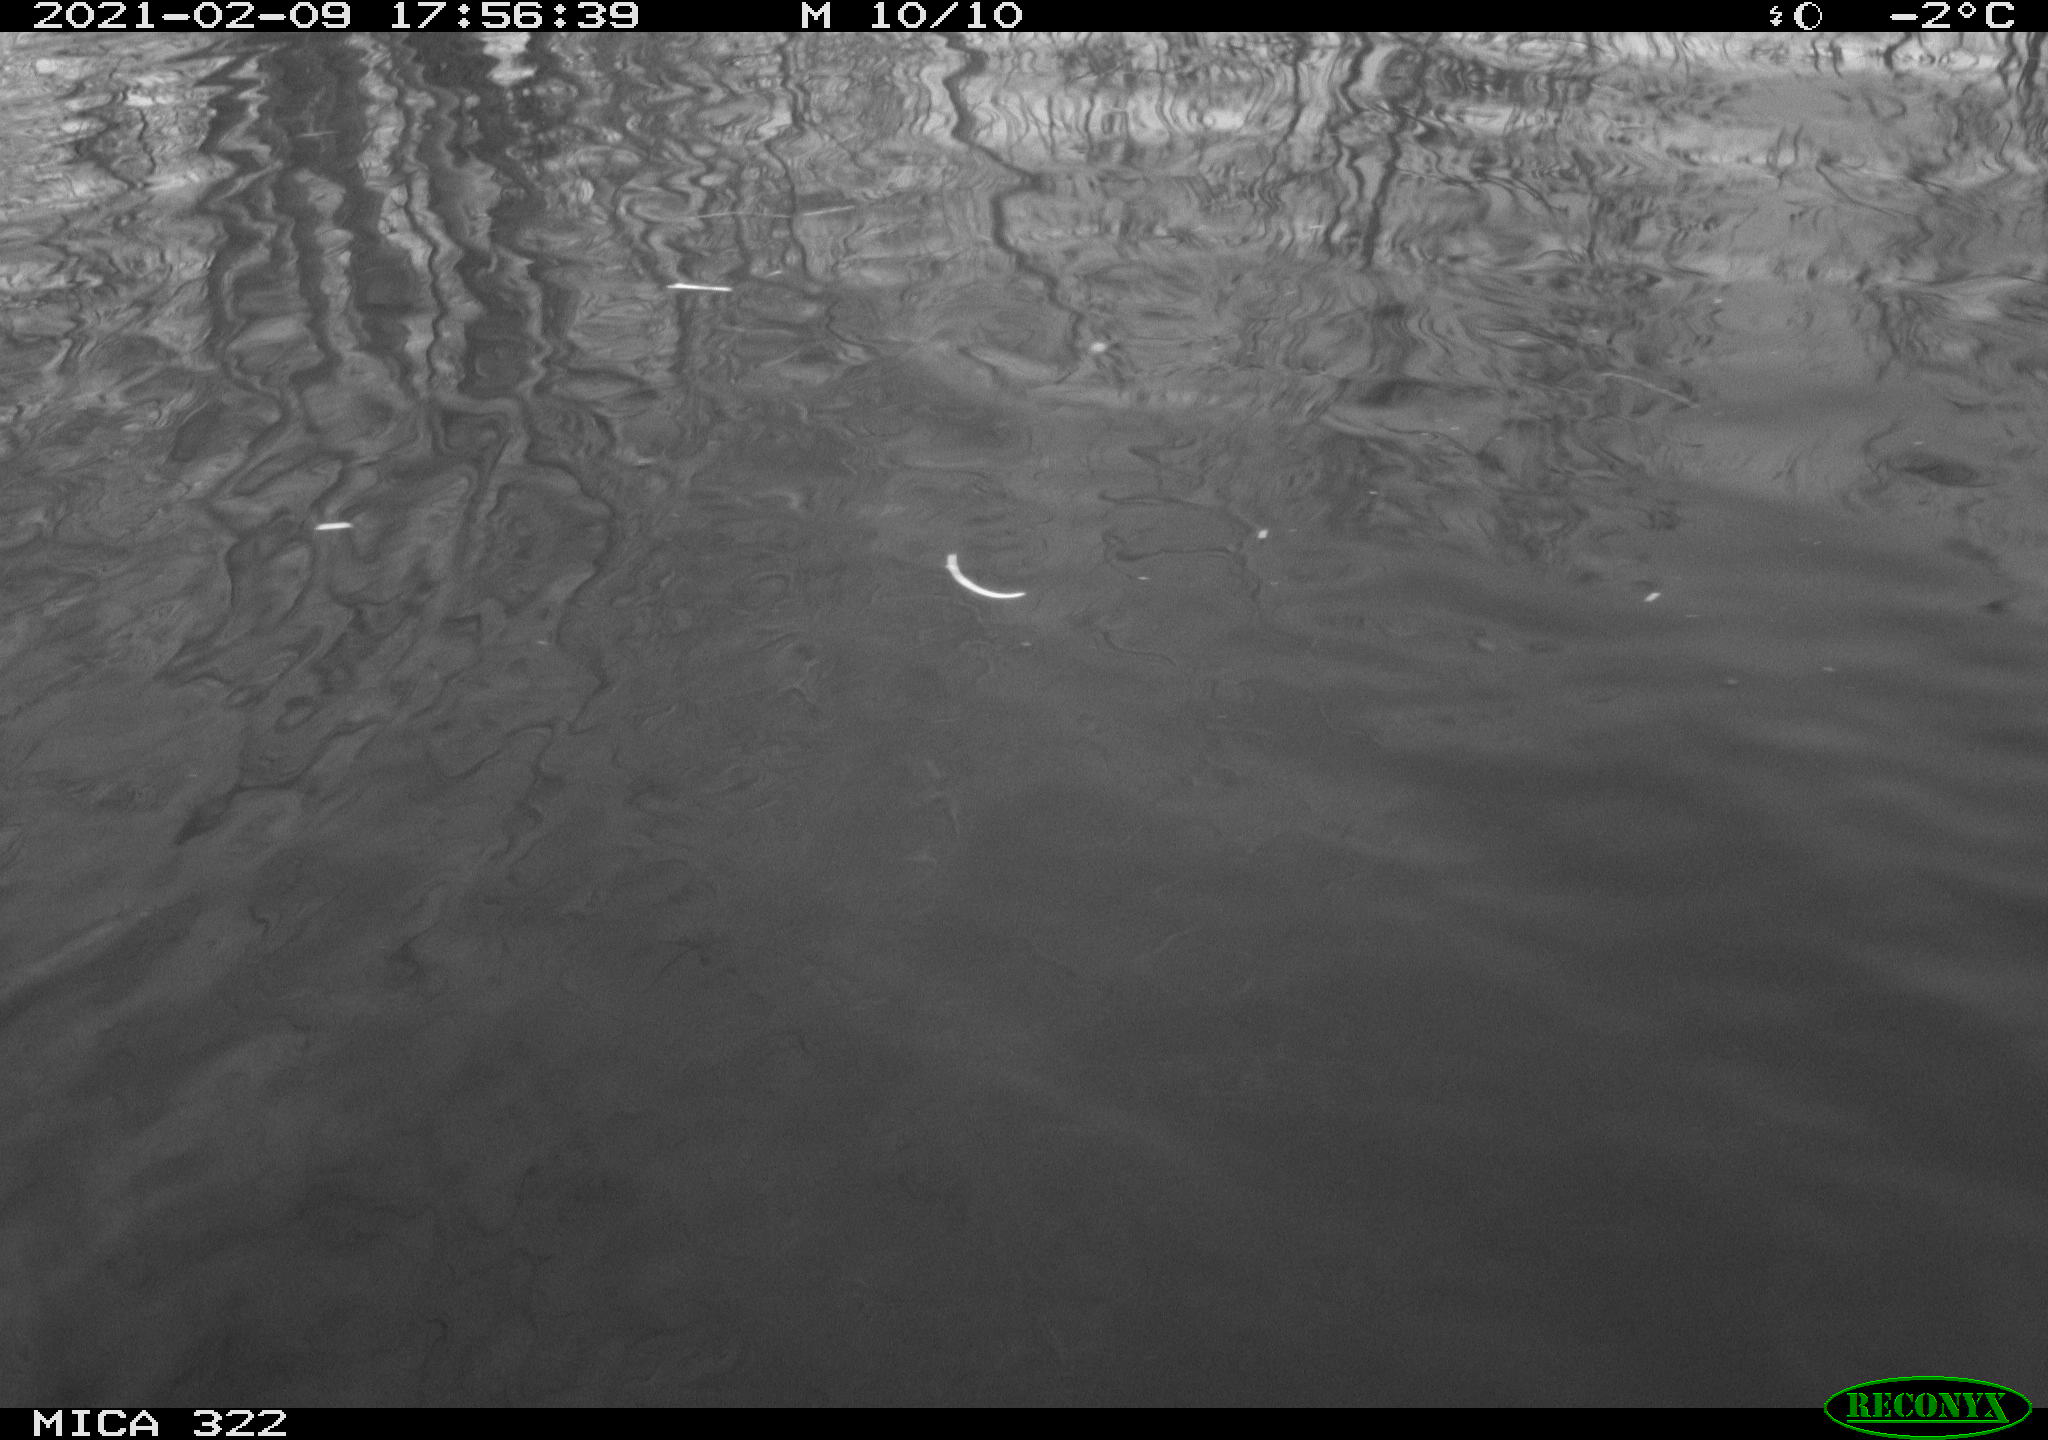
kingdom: Animalia
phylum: Chordata
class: Aves
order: Anseriformes
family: Anatidae
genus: Anas
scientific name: Anas platyrhynchos
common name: Mallard
